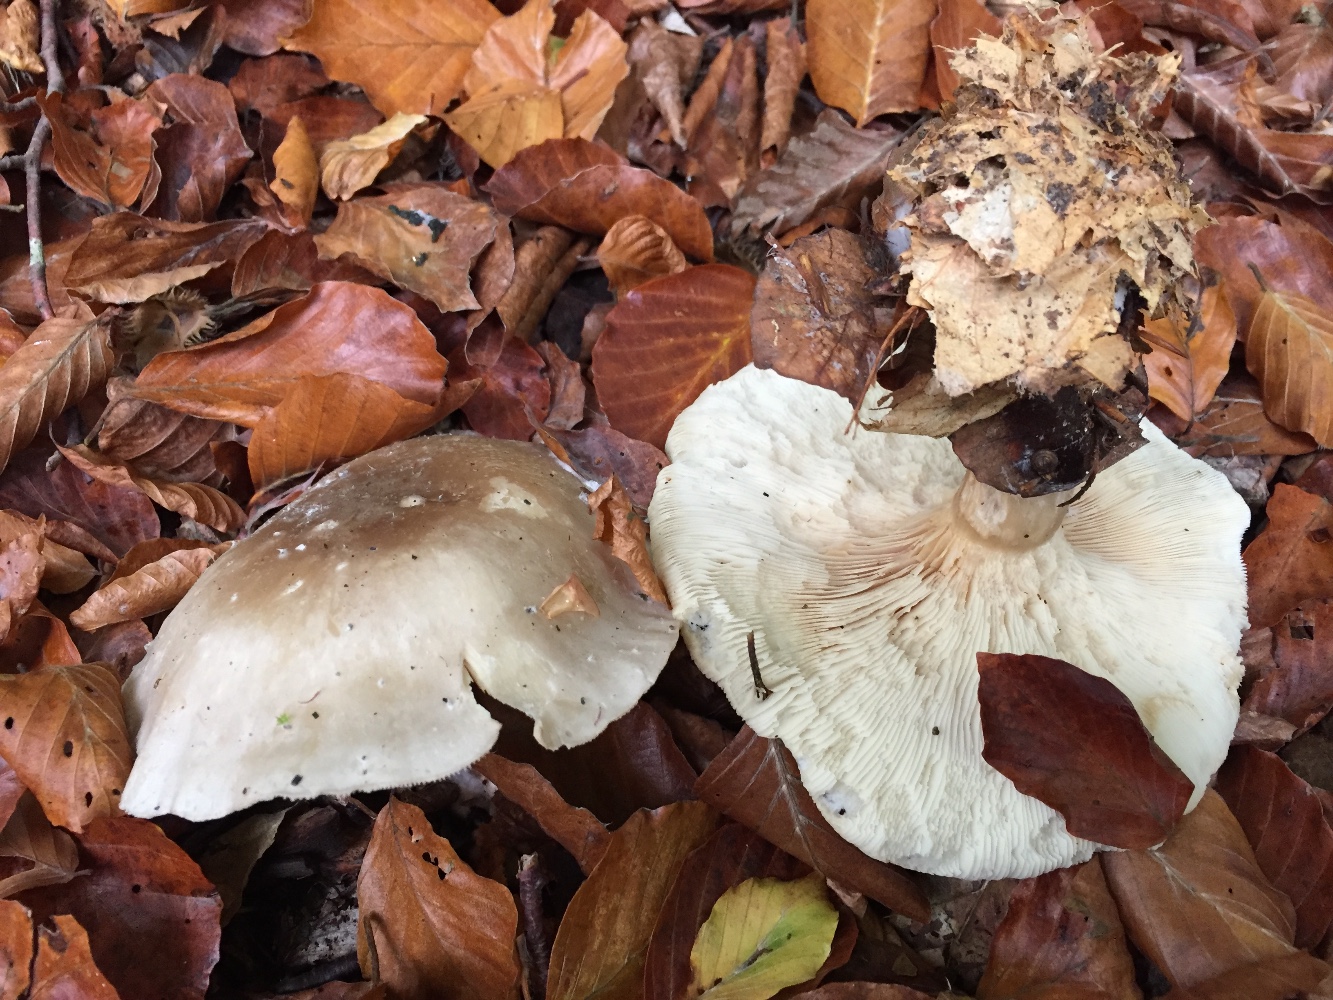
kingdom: Fungi
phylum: Basidiomycota
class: Agaricomycetes
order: Agaricales
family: Tricholomataceae
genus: Clitocybe
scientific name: Clitocybe nebularis
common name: tåge-tragthat
